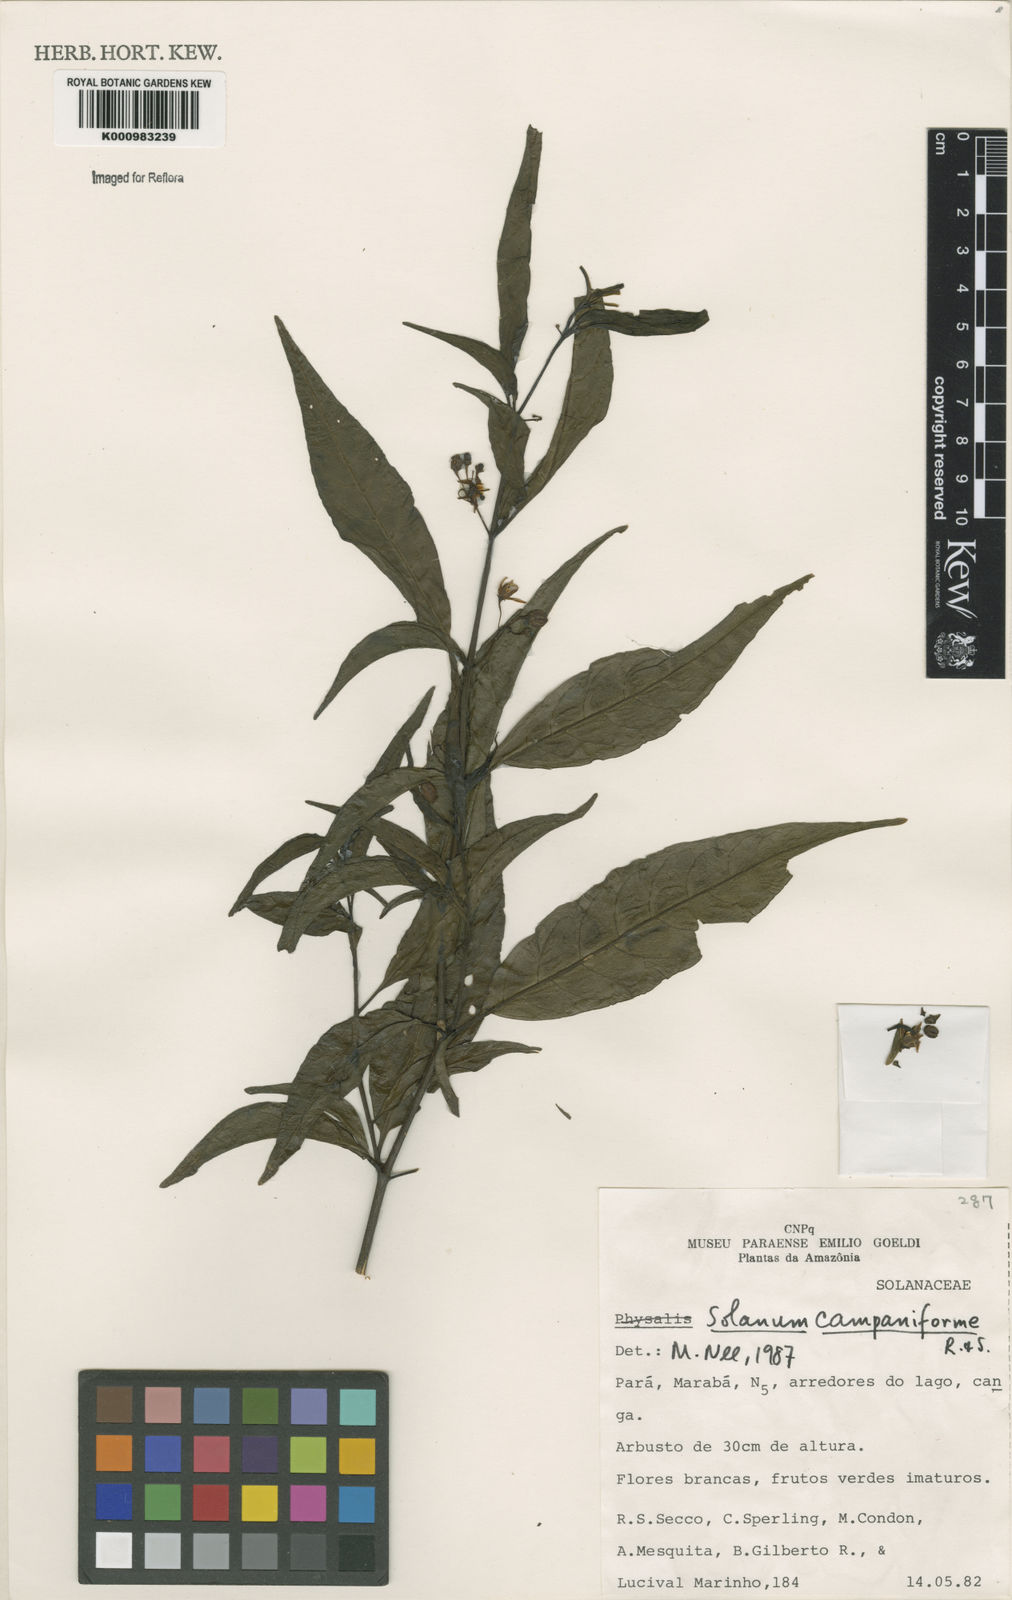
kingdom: Plantae
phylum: Tracheophyta
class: Magnoliopsida
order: Solanales
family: Solanaceae
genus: Solanum
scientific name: Solanum campaniforme
